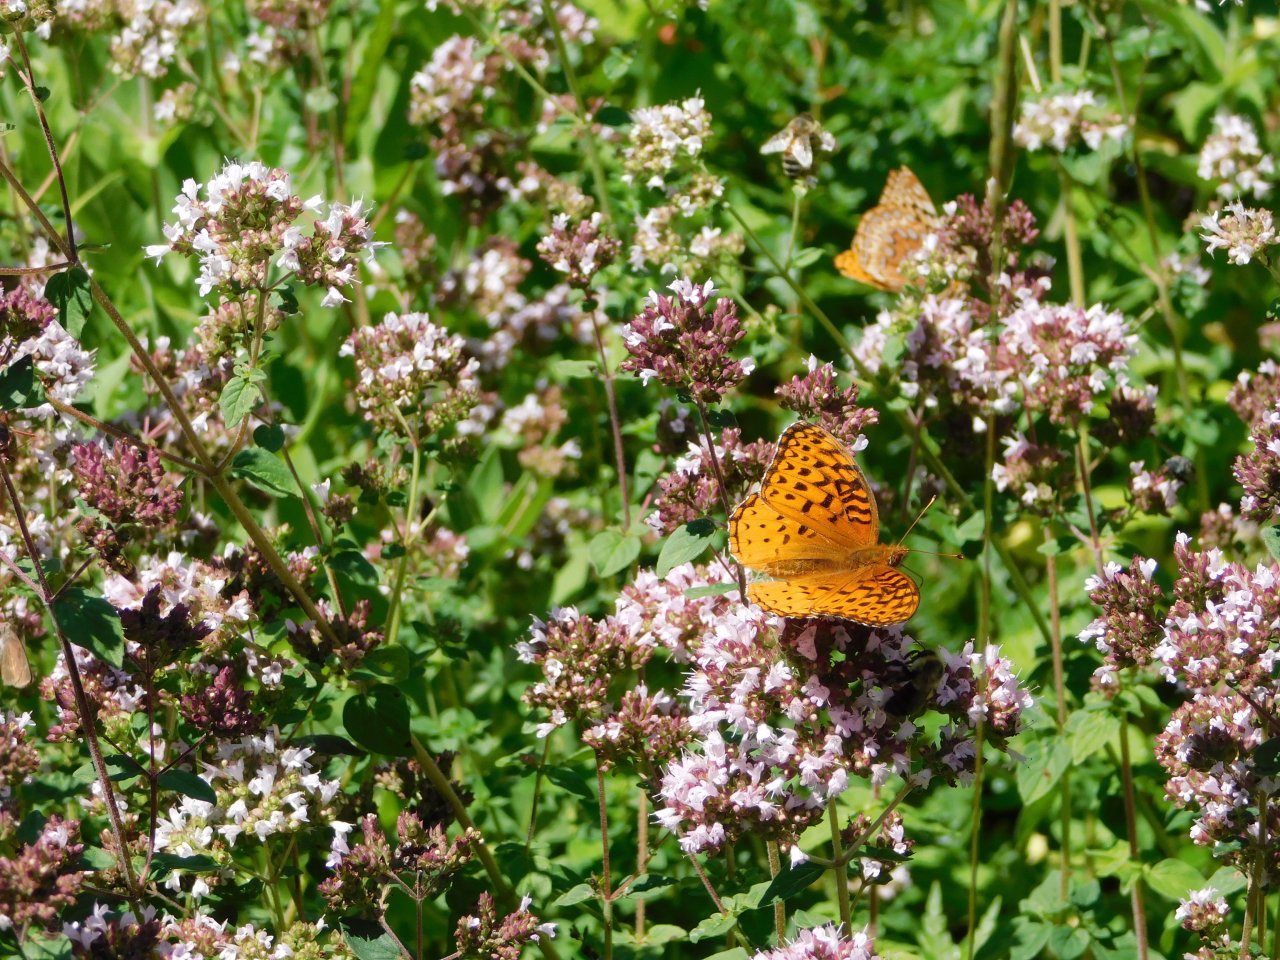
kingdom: Animalia
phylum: Arthropoda
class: Insecta
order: Lepidoptera
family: Nymphalidae
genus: Speyeria
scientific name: Speyeria aphrodite
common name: Aphrodite Fritillary
